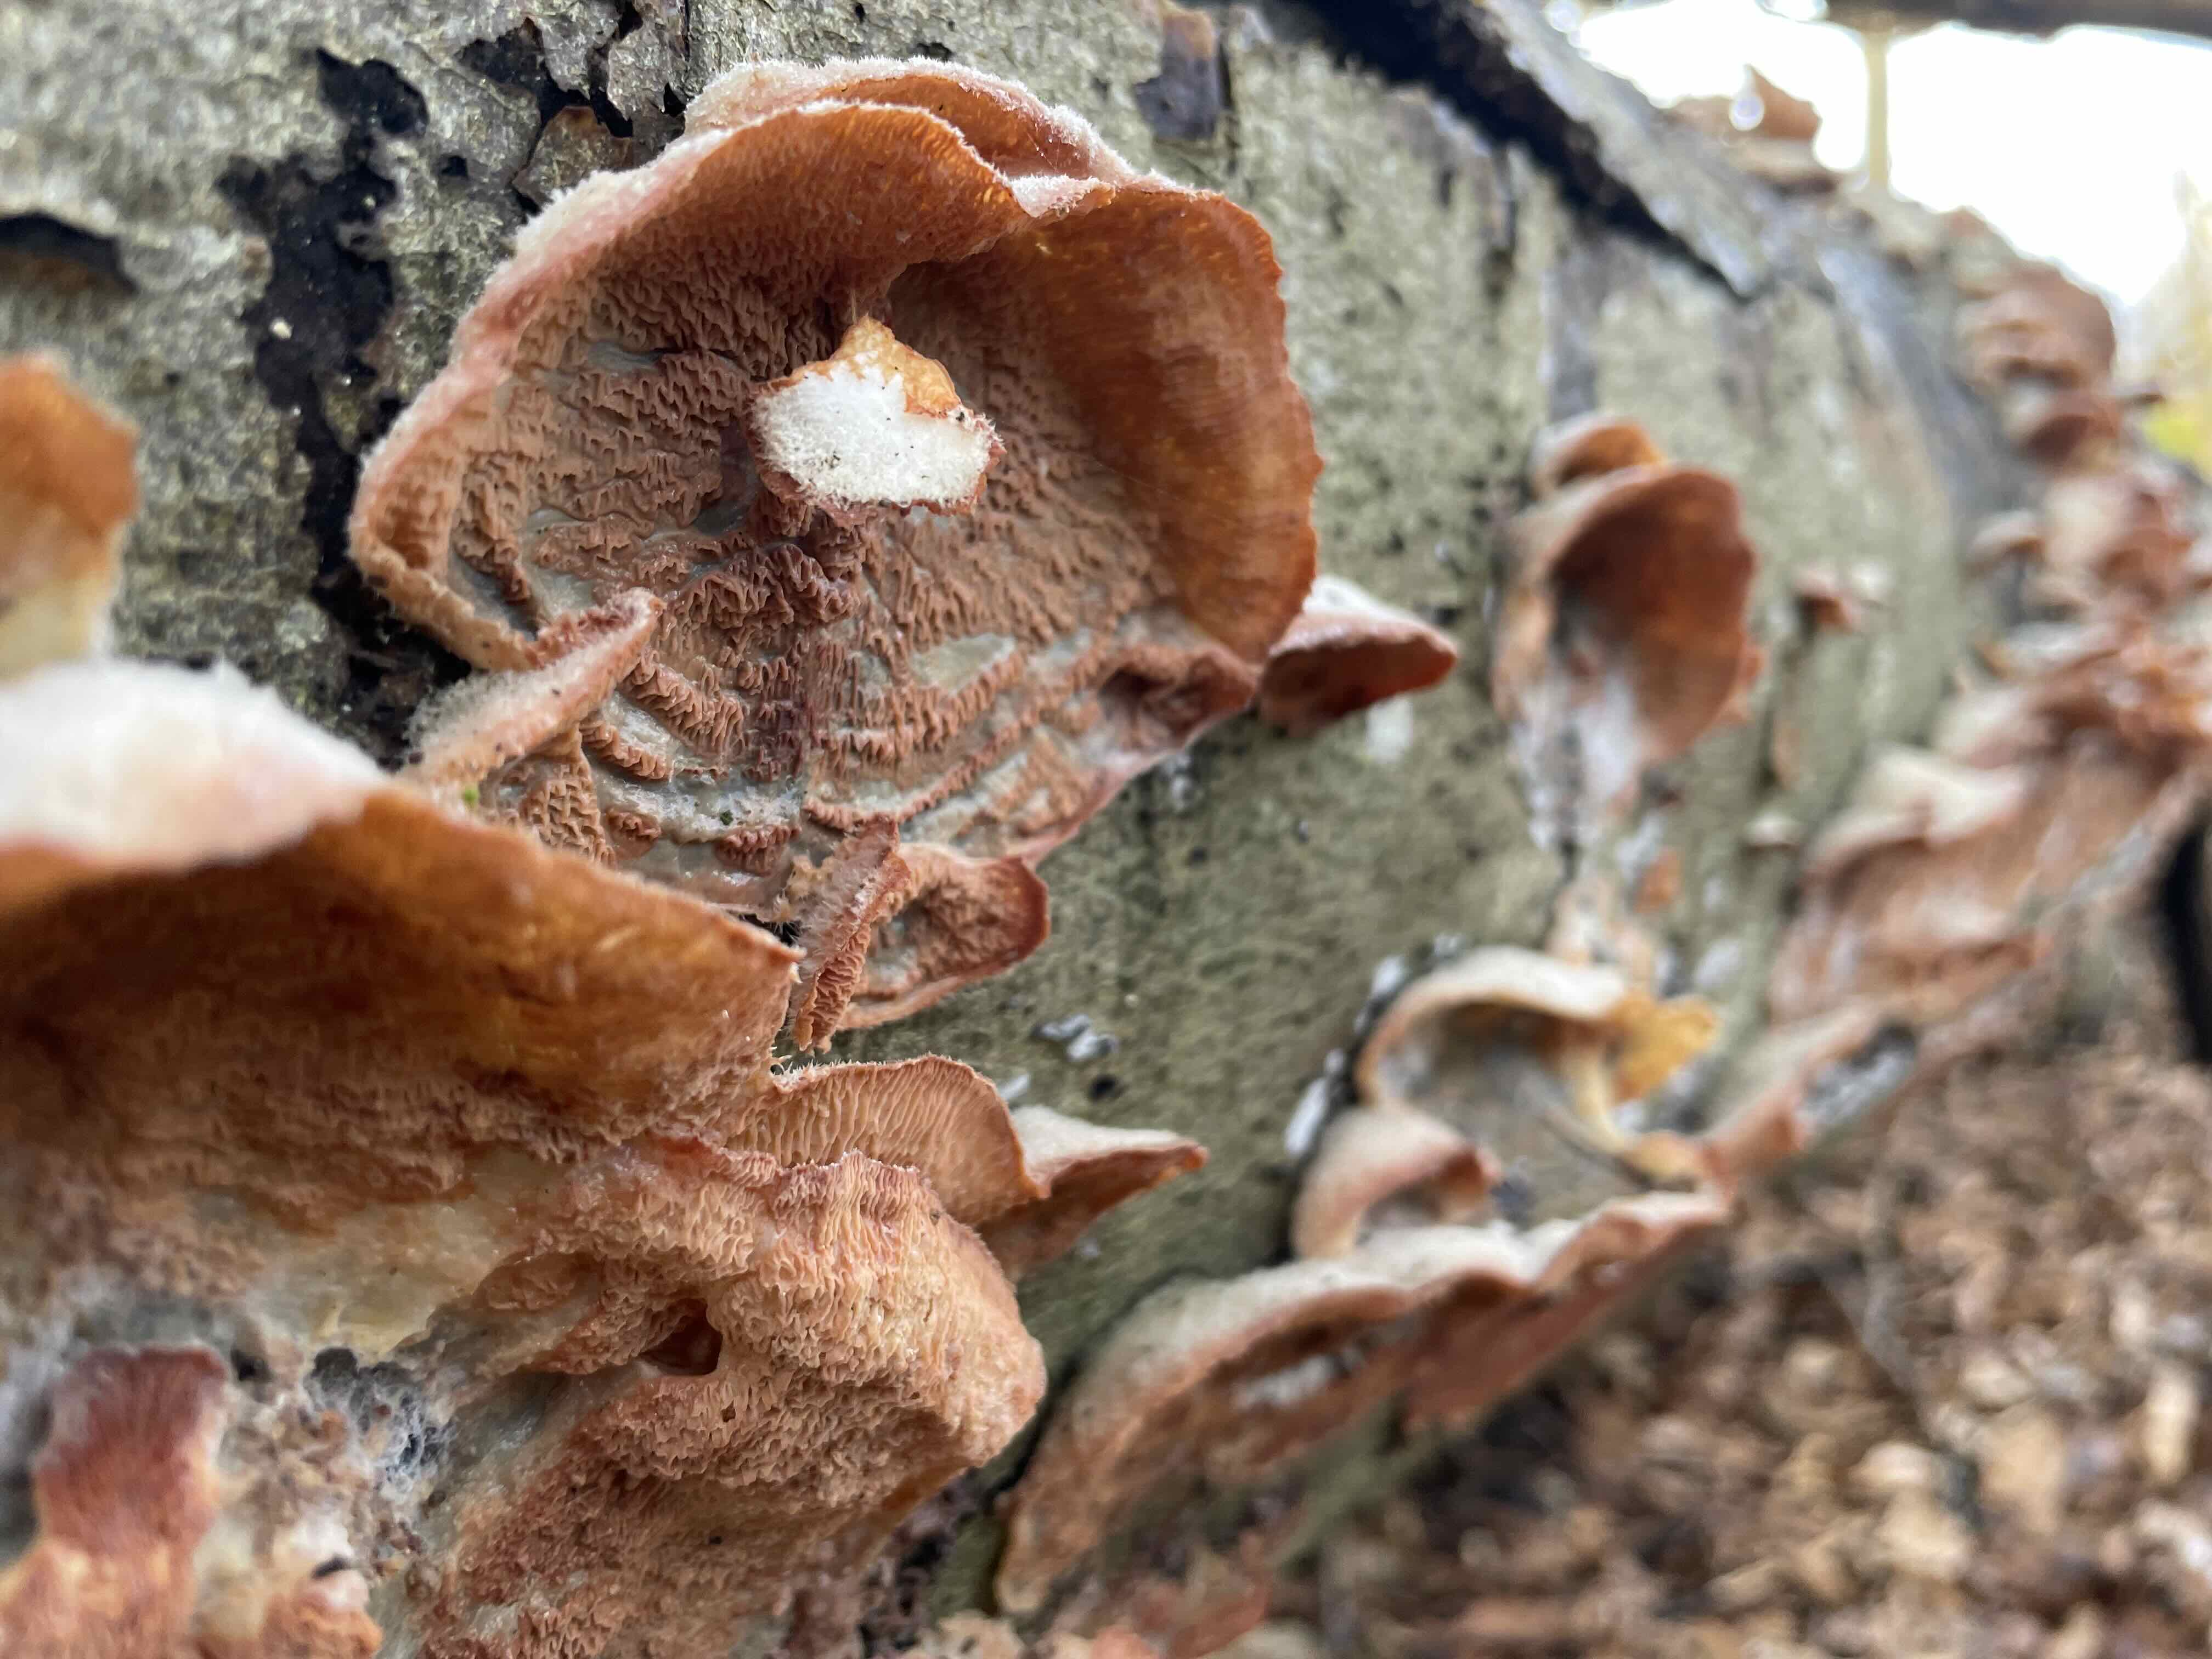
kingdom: Fungi
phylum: Basidiomycota
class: Agaricomycetes
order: Polyporales
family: Meruliaceae
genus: Phlebia
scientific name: Phlebia tremellosa
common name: bævrende åresvamp
